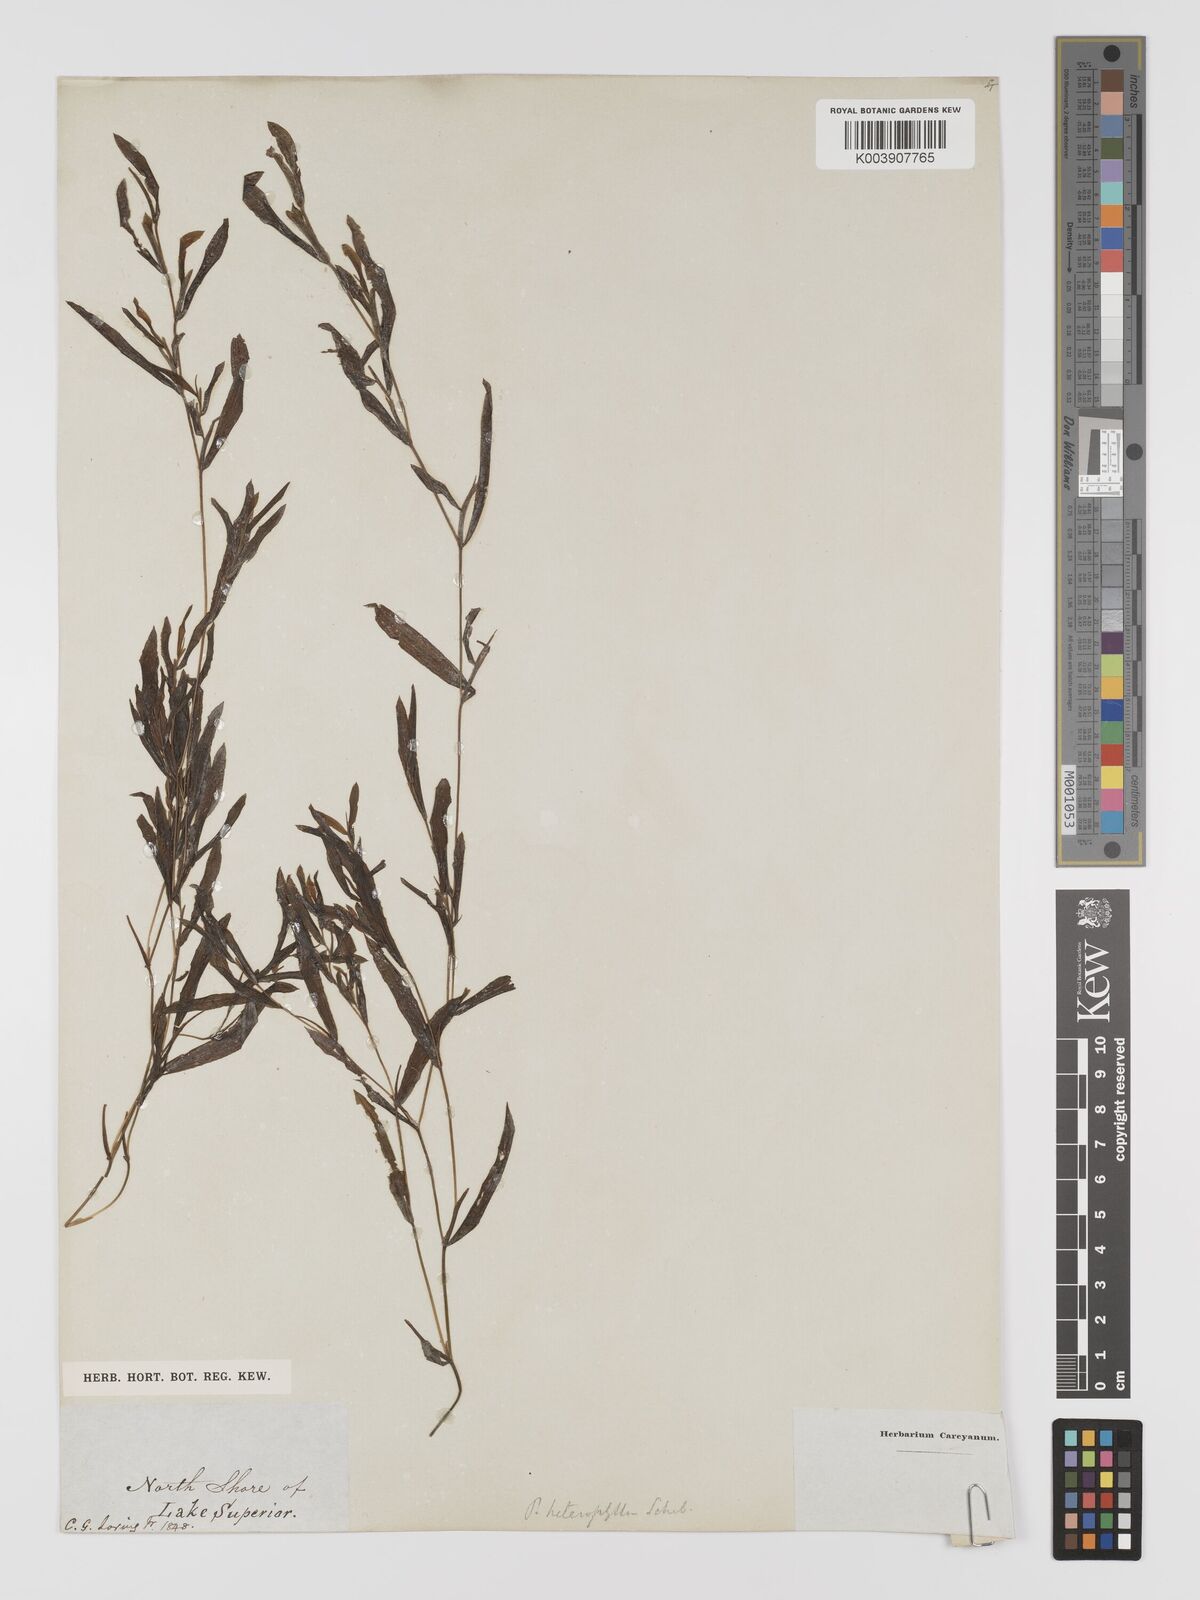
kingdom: Plantae
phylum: Tracheophyta
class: Liliopsida
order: Alismatales
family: Potamogetonaceae
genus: Potamogeton
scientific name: Potamogeton gramineus
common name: Various-leaved pondweed
